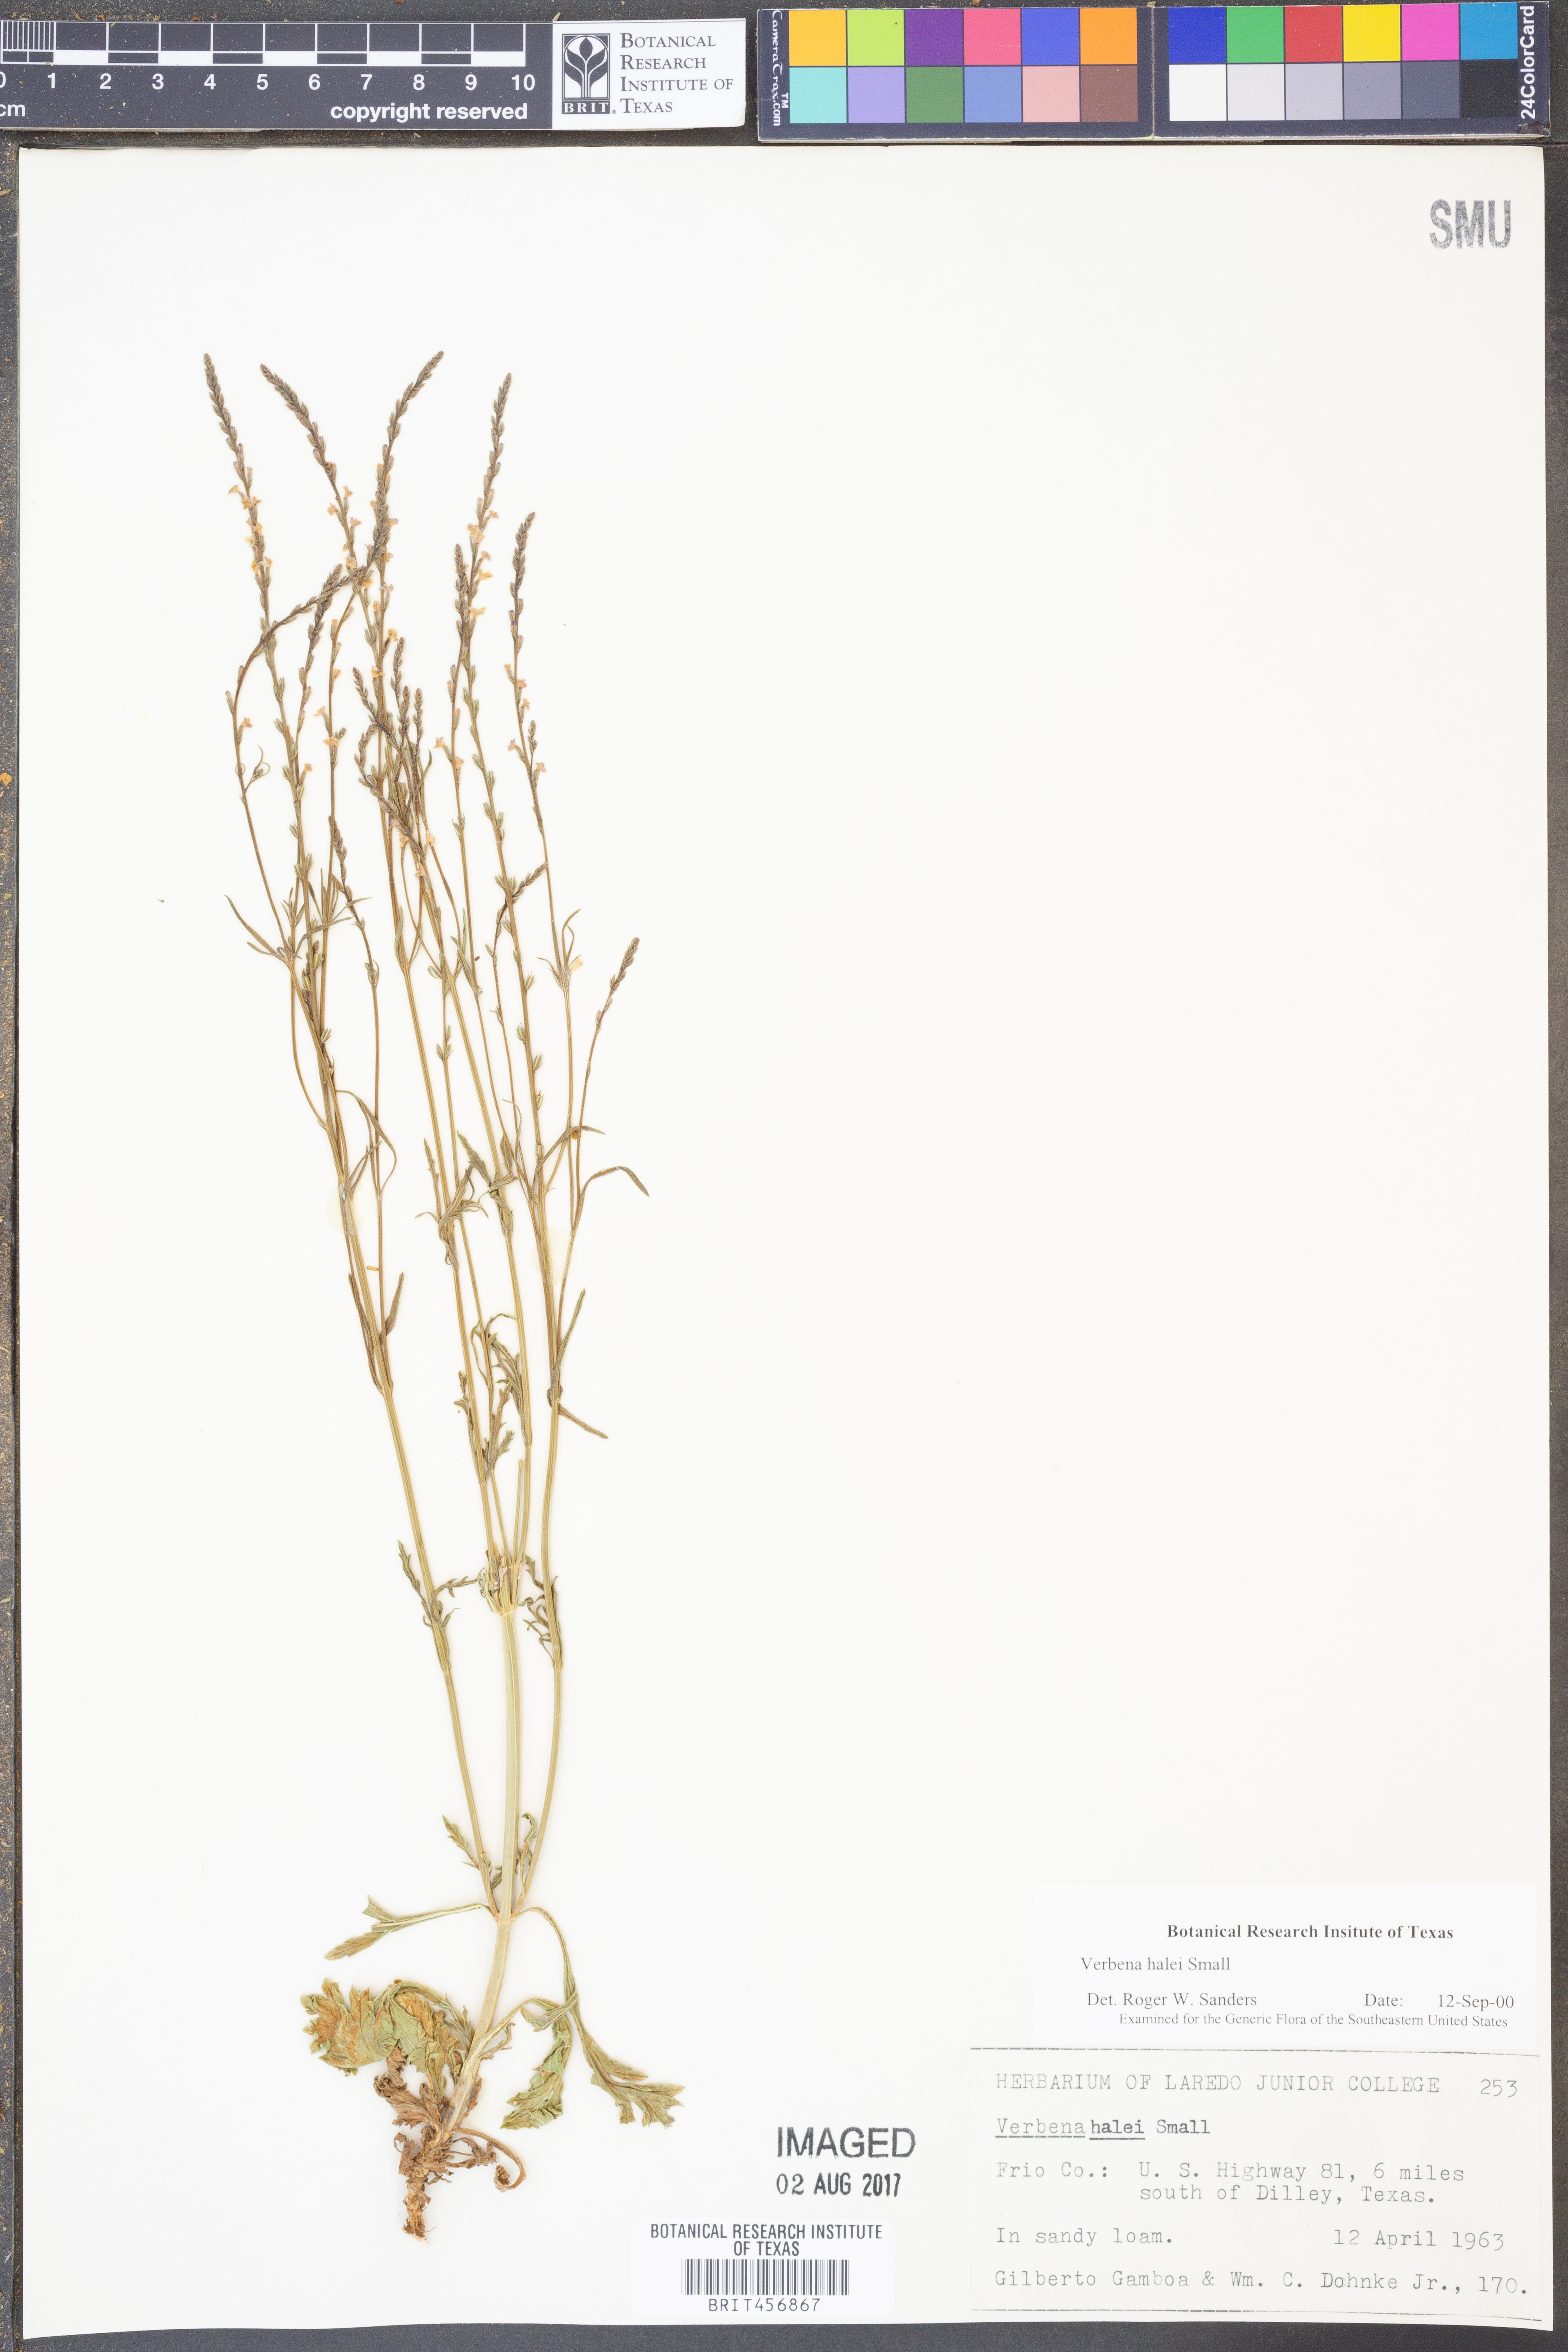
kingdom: Plantae
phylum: Tracheophyta
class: Magnoliopsida
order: Lamiales
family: Verbenaceae
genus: Verbena
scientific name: Verbena halei
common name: Texas vervain
